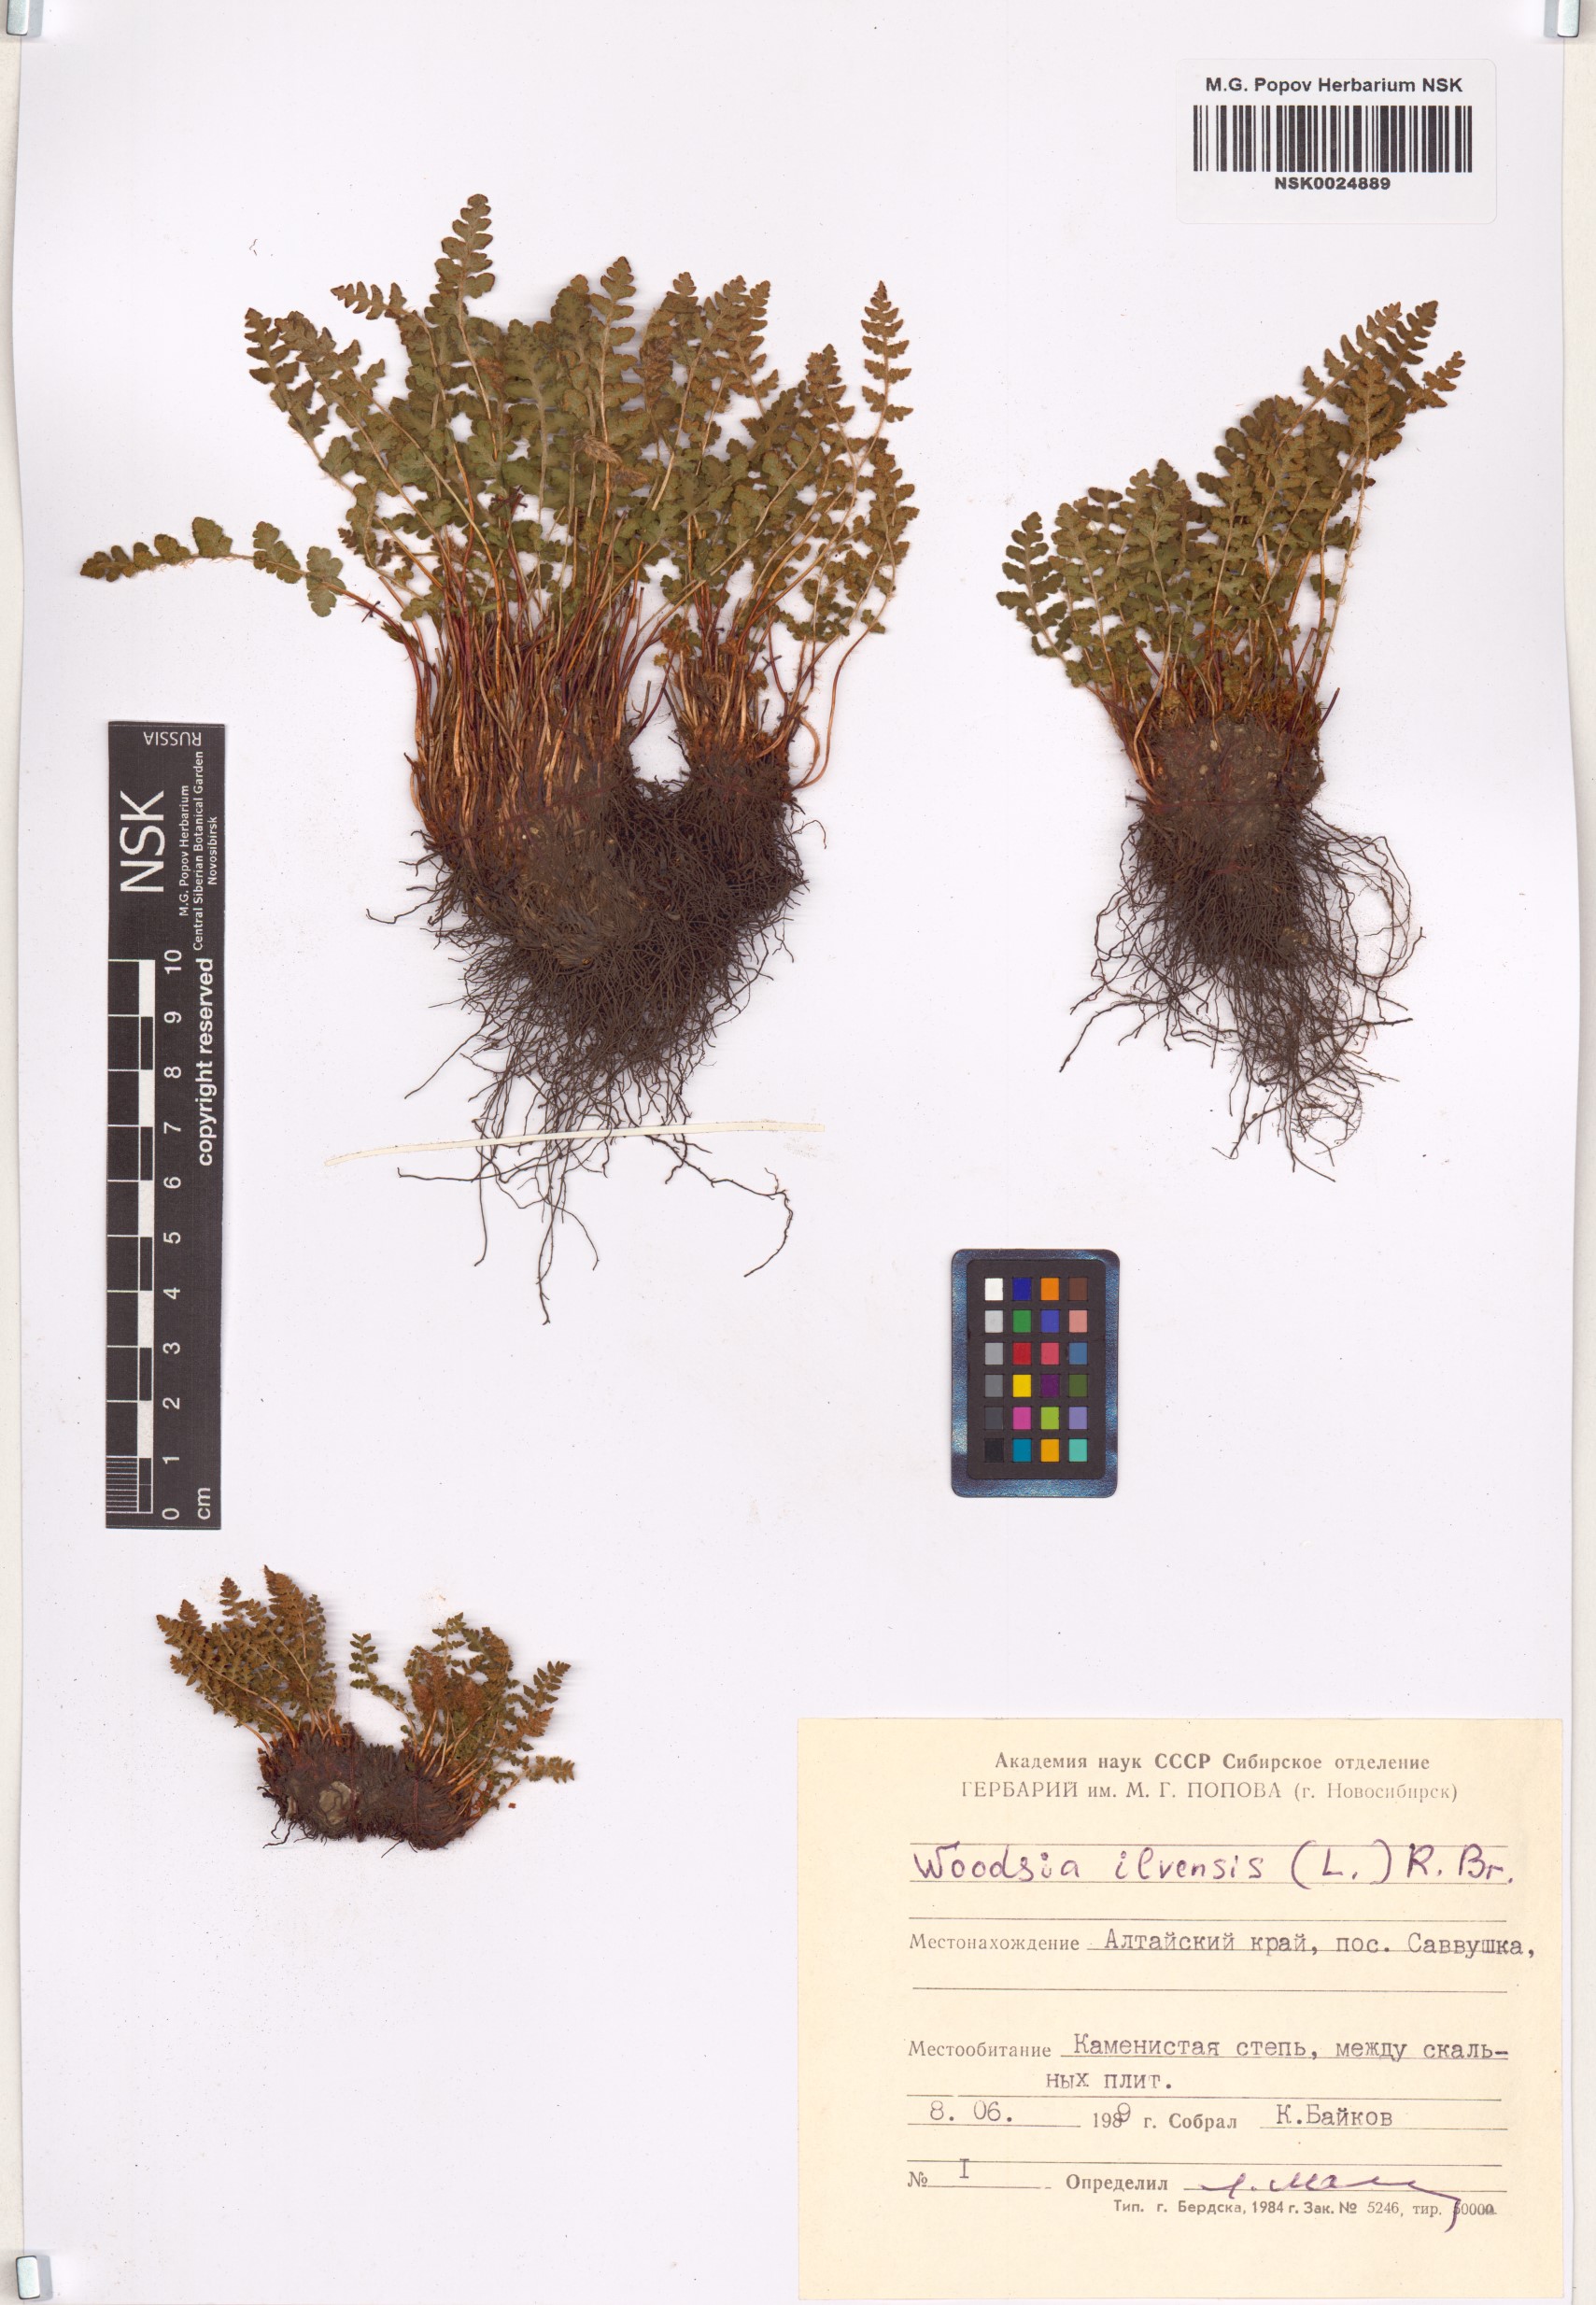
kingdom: Plantae
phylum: Tracheophyta
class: Polypodiopsida
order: Polypodiales
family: Woodsiaceae
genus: Woodsia
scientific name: Woodsia ilvensis
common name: Fragrant woodsia
